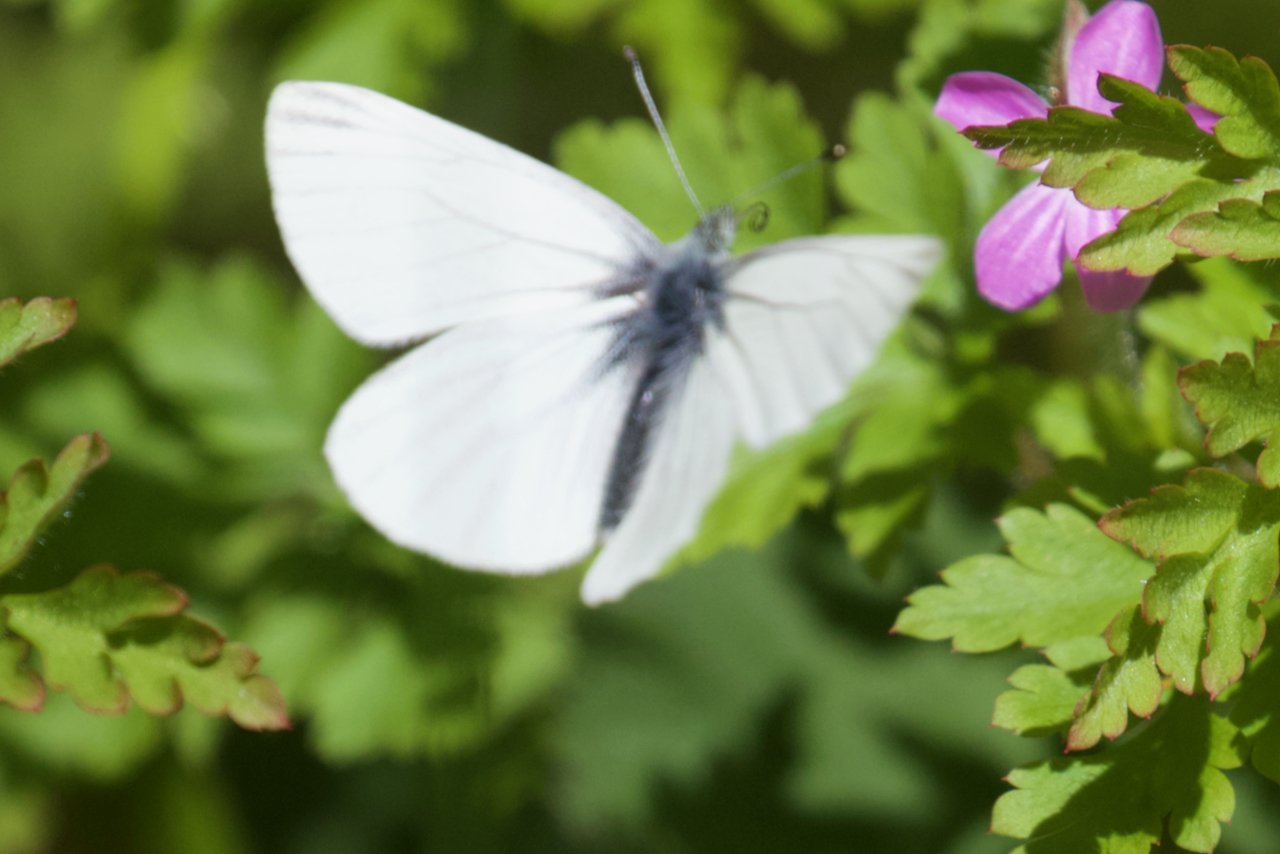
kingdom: Animalia
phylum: Arthropoda
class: Insecta
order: Lepidoptera
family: Pieridae
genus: Pieris
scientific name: Pieris marginalis
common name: Margined White
